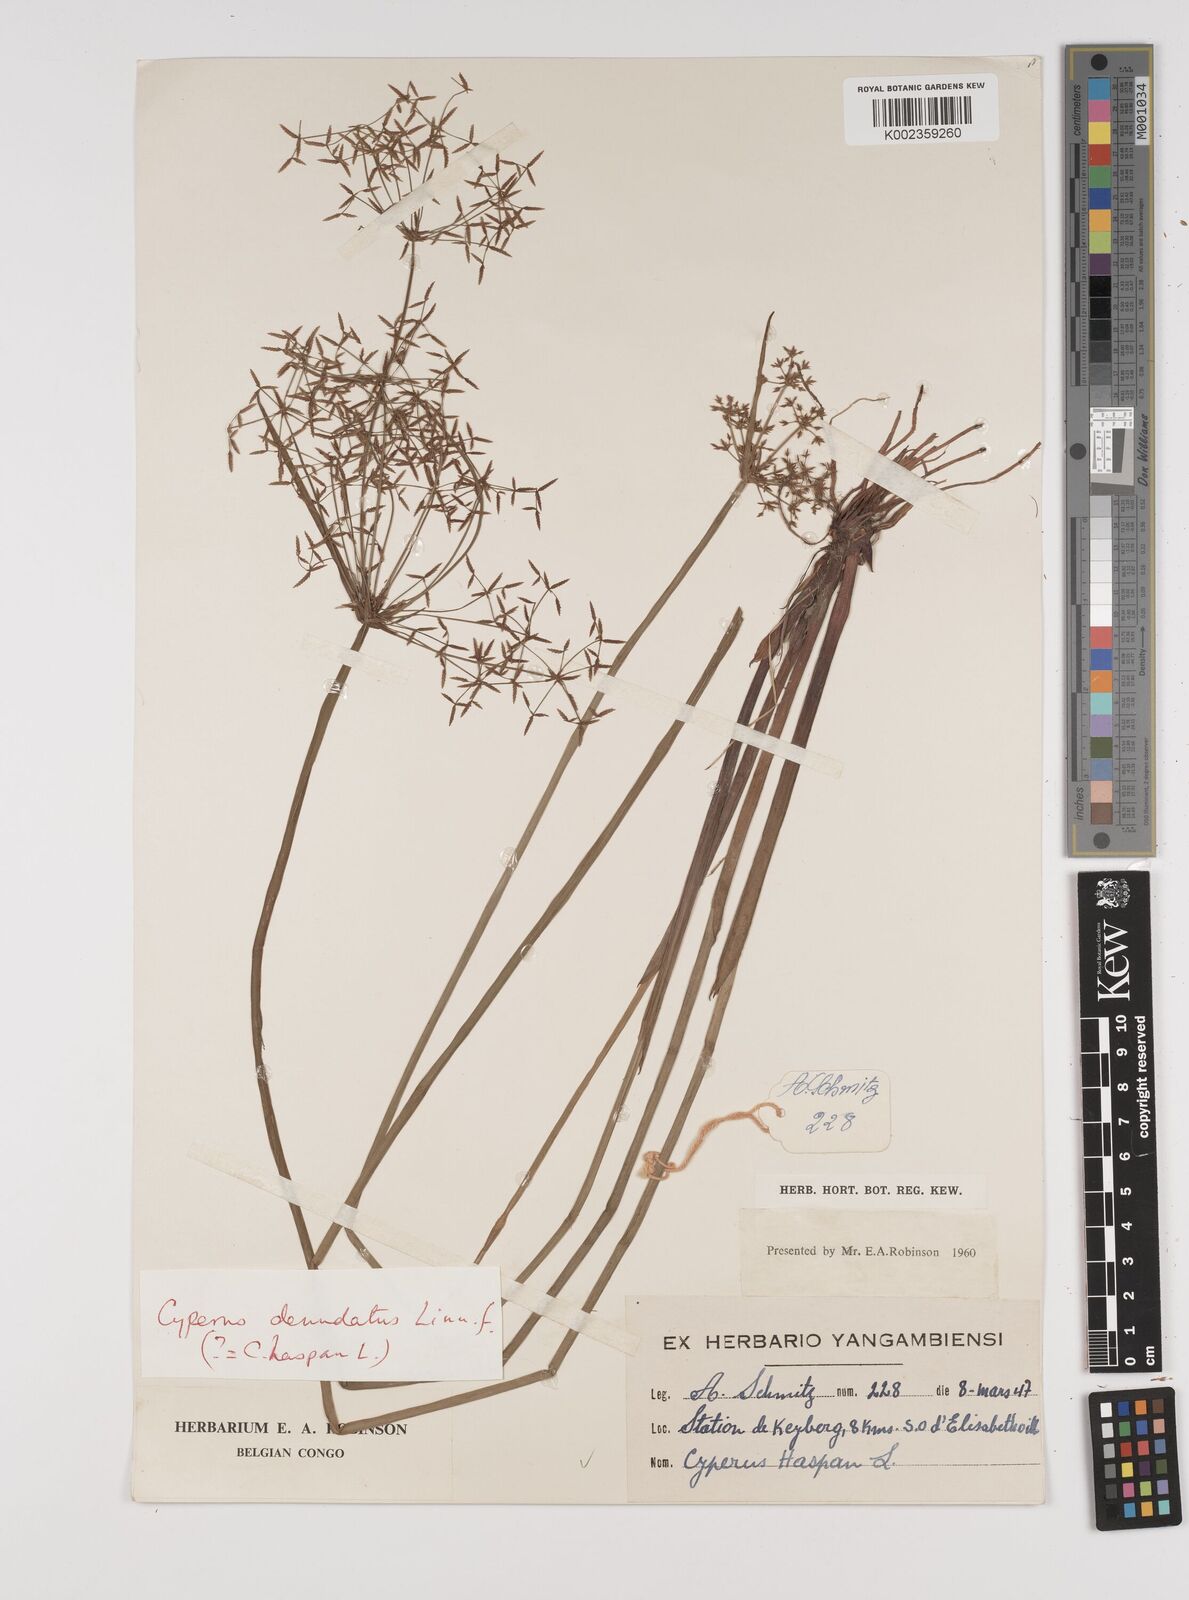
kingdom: Plantae
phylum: Tracheophyta
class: Liliopsida
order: Poales
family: Cyperaceae
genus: Cyperus
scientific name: Cyperus haspan
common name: Haspan flatsedge
